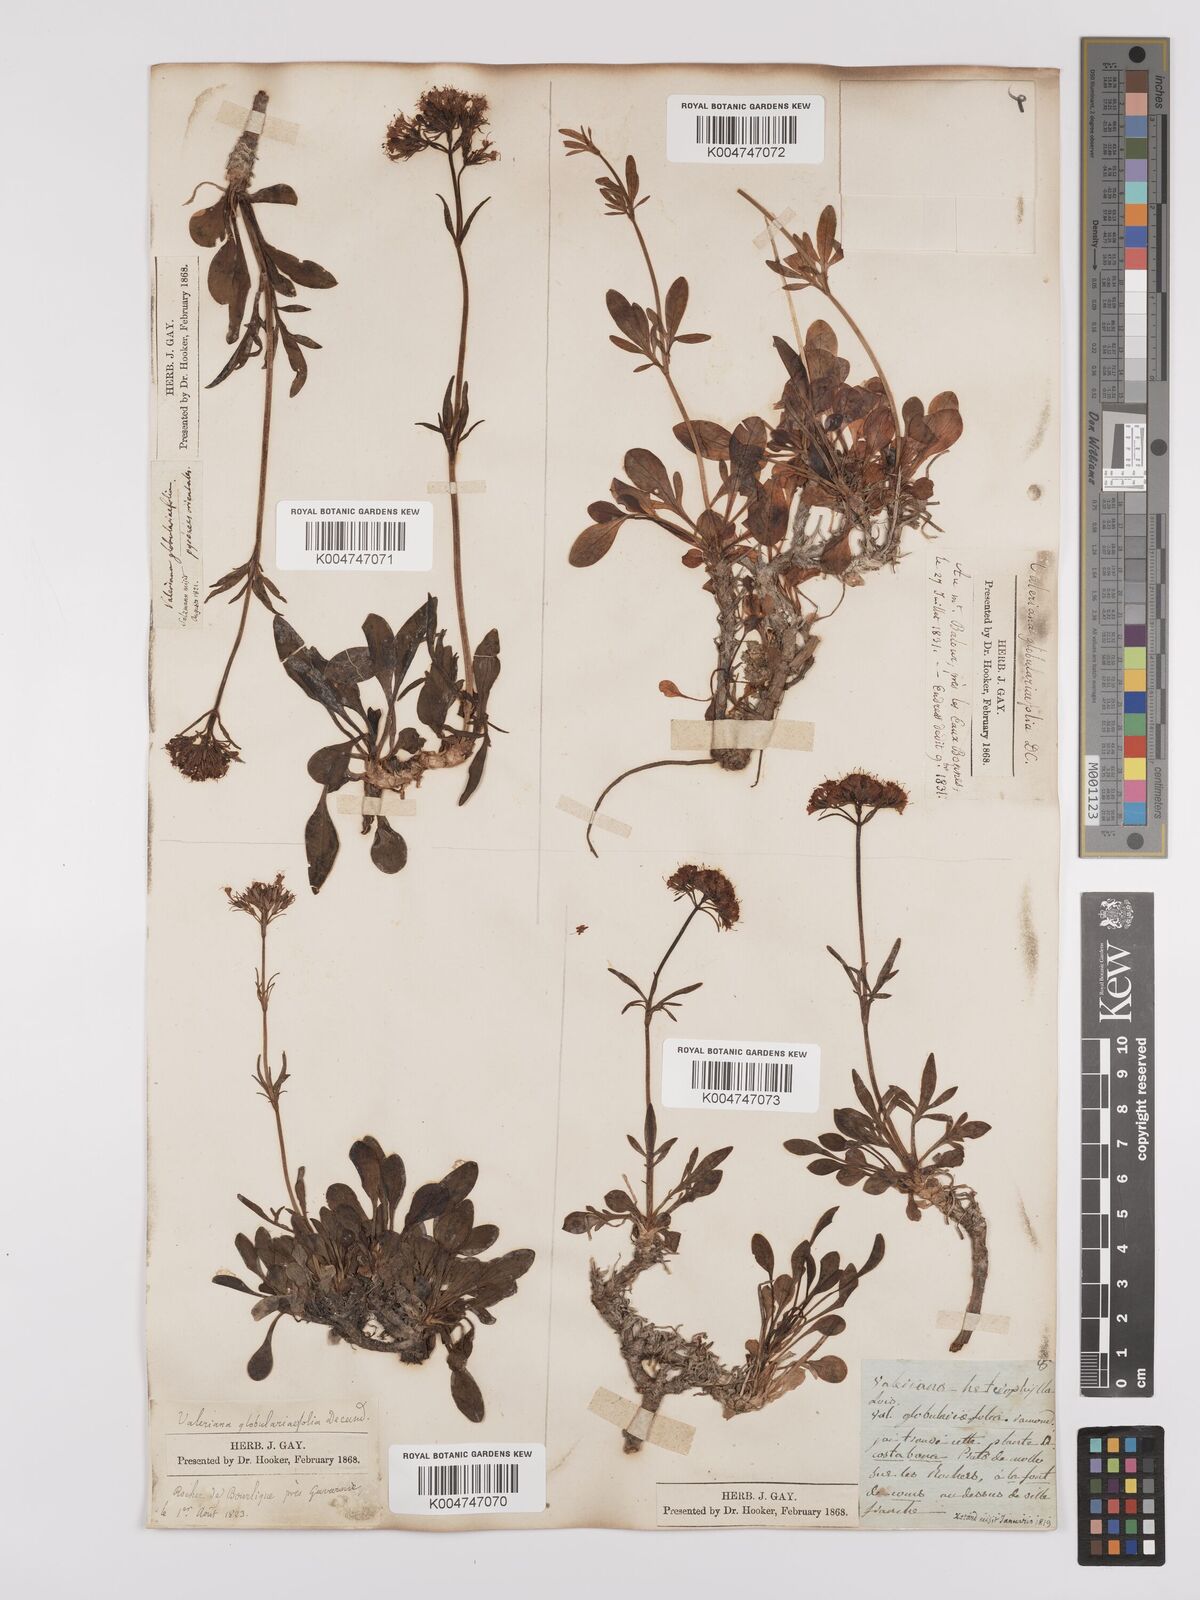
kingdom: Plantae
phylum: Tracheophyta
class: Magnoliopsida
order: Dipsacales
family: Caprifoliaceae
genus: Valeriana
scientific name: Valeriana apula
